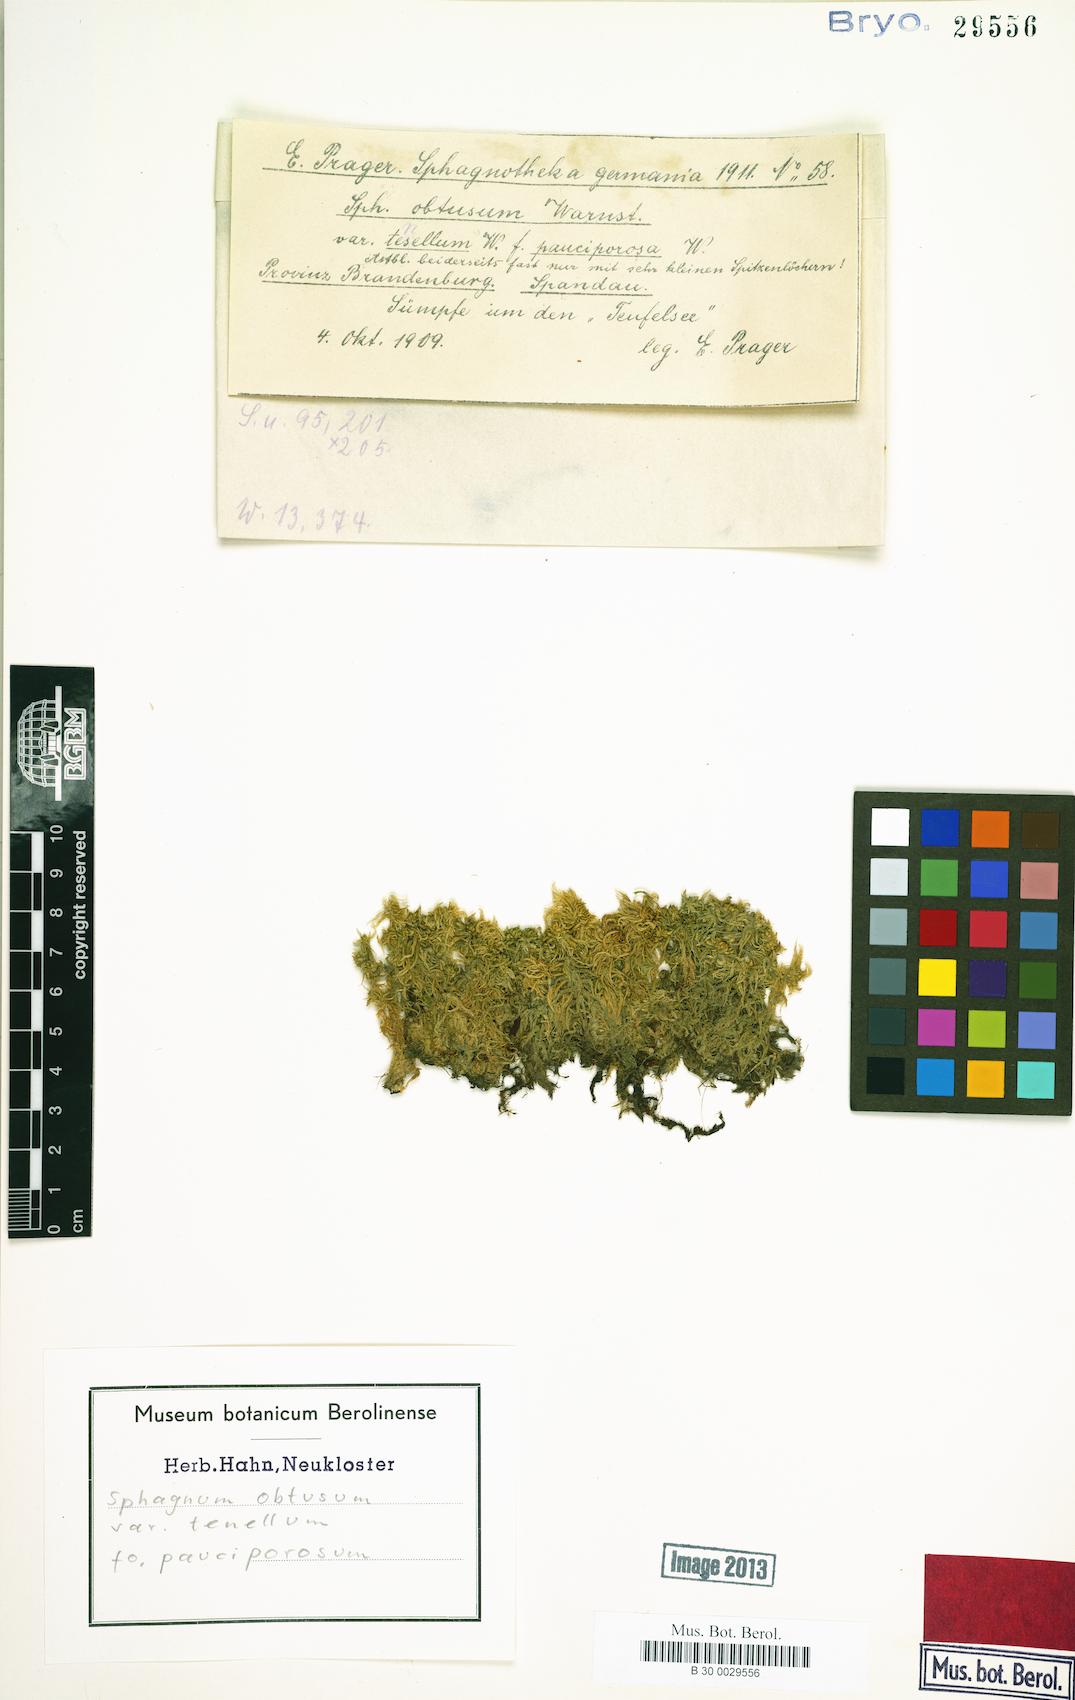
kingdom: Plantae
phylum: Bryophyta
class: Sphagnopsida
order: Sphagnales
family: Sphagnaceae
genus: Sphagnum
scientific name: Sphagnum obtusum
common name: Obtuse peat moss
